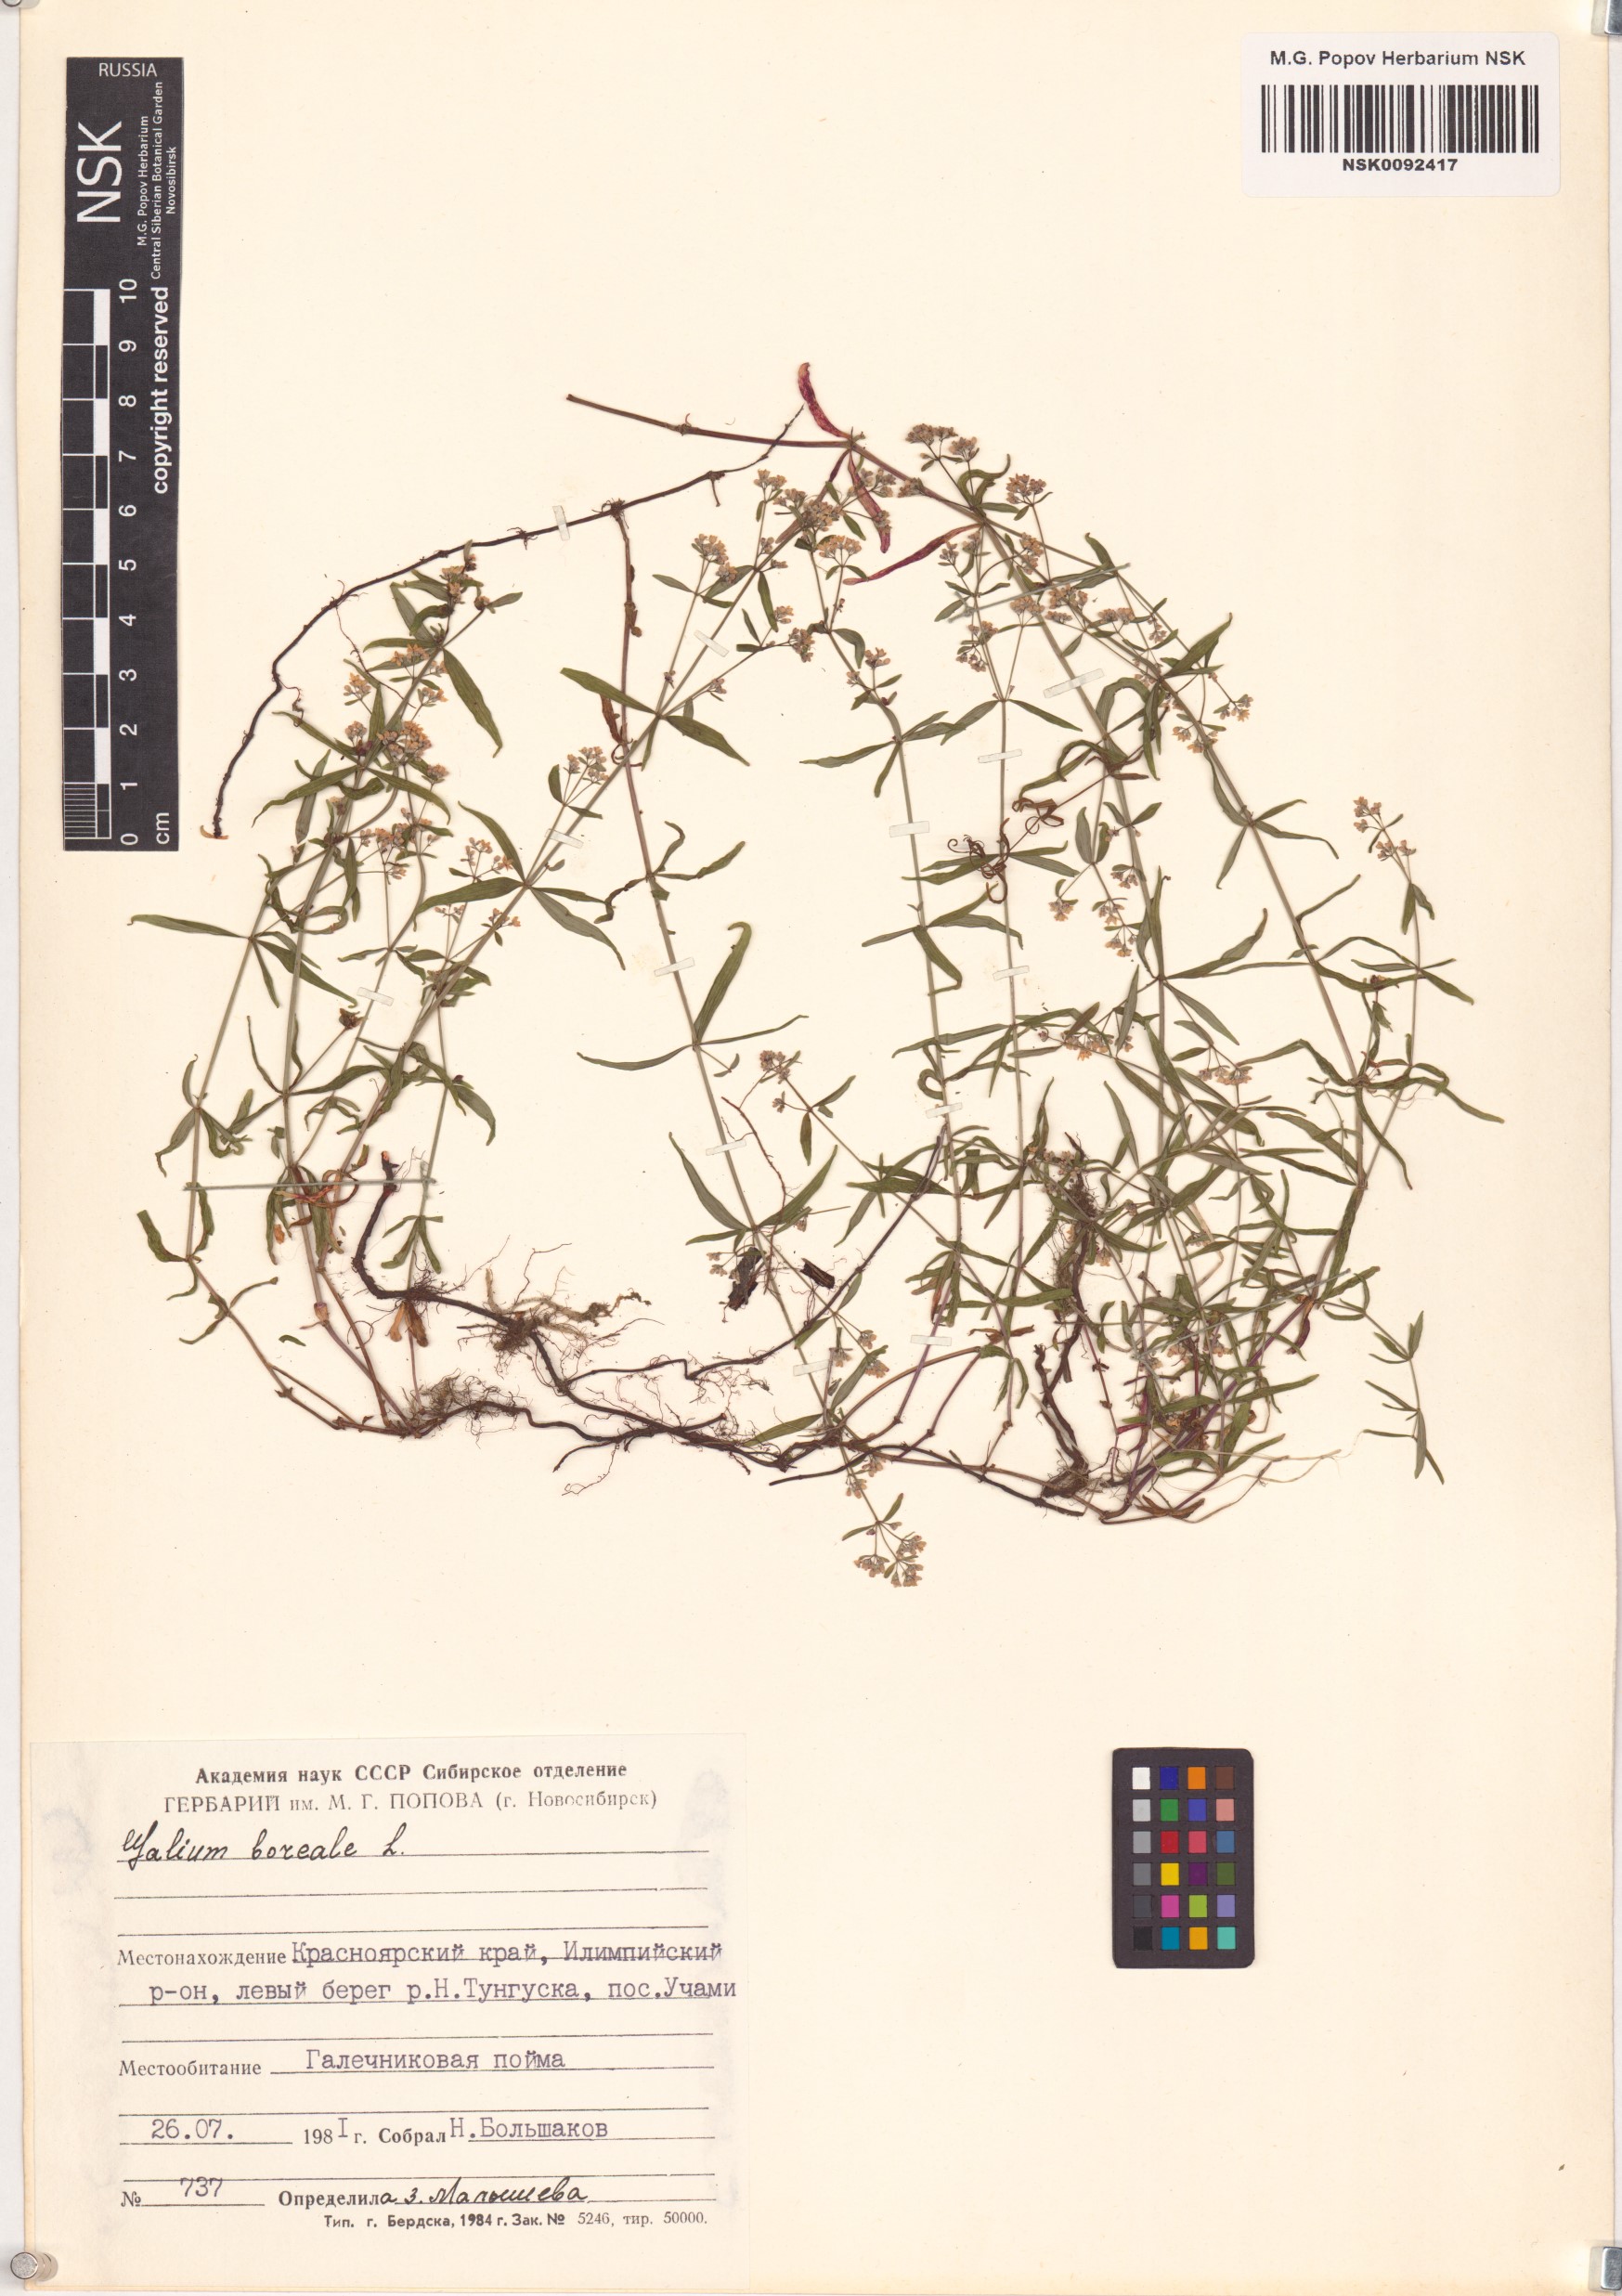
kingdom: Plantae
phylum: Tracheophyta
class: Magnoliopsida
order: Gentianales
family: Rubiaceae
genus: Galium
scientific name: Galium boreale
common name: Northern bedstraw
